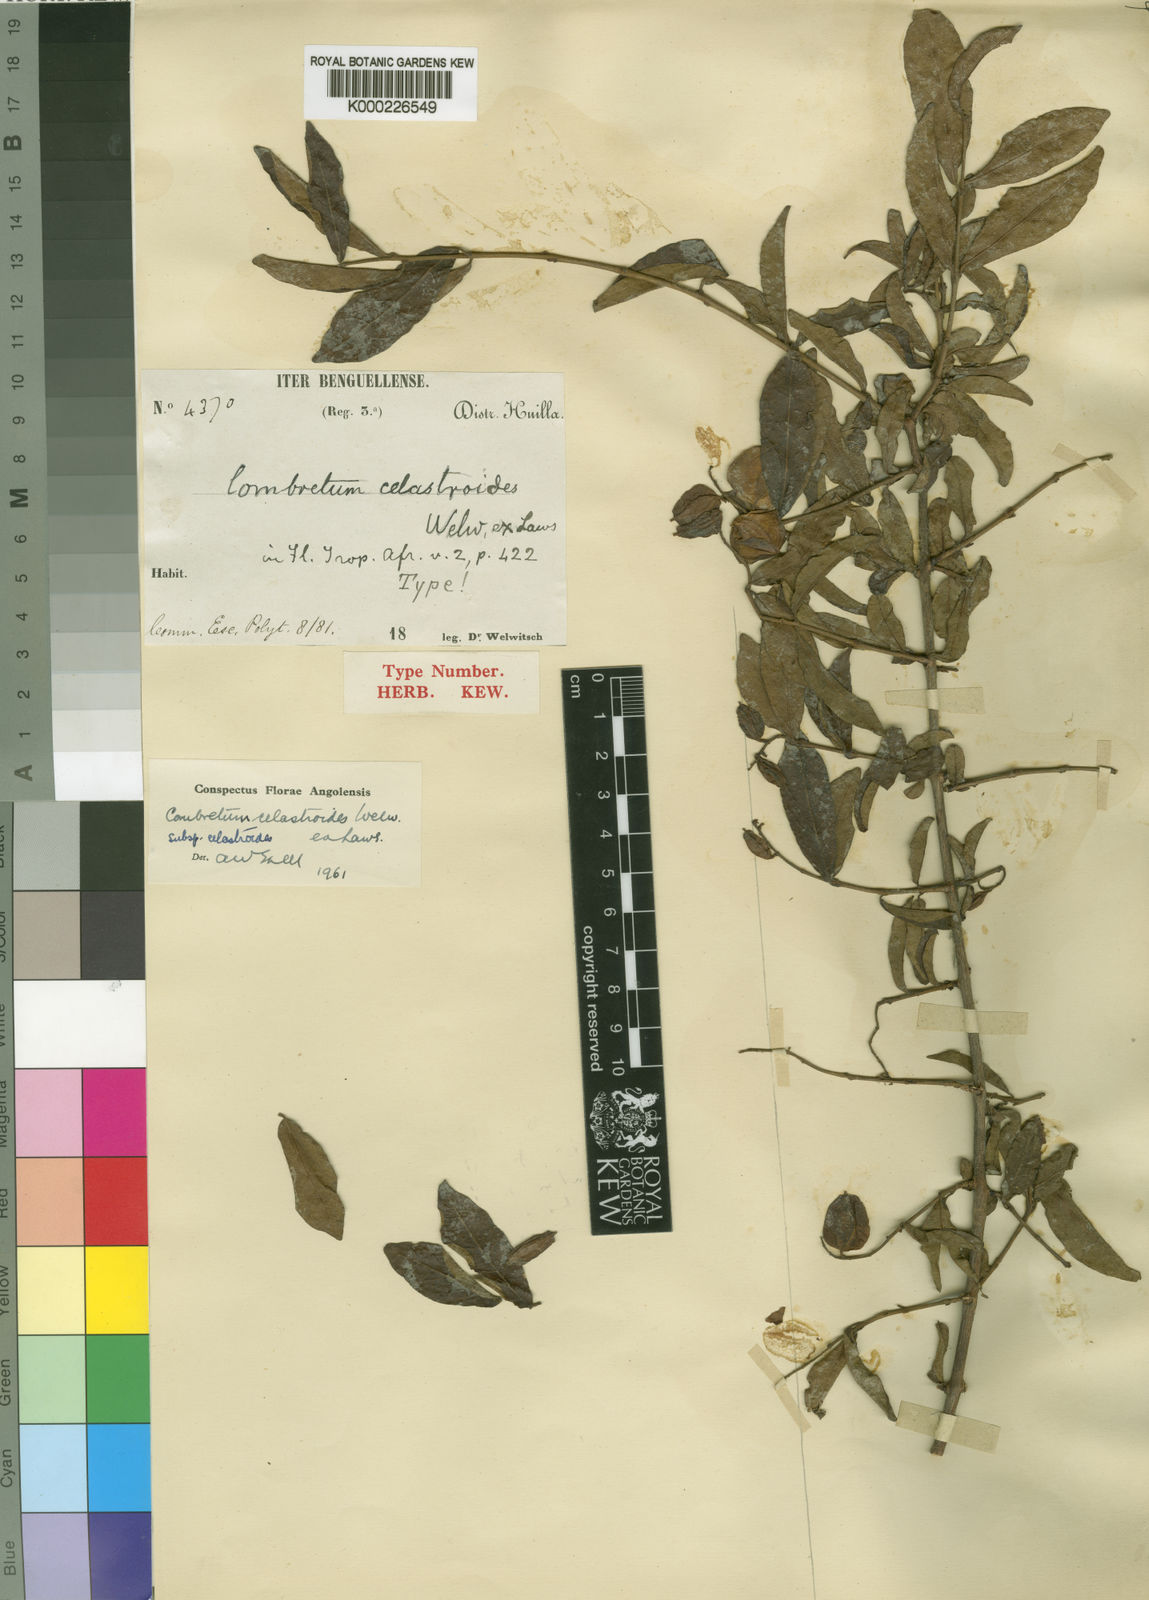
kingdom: Plantae
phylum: Tracheophyta
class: Magnoliopsida
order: Myrtales
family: Combretaceae
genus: Combretum
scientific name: Combretum celastroides
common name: Jesse-bush combretum
